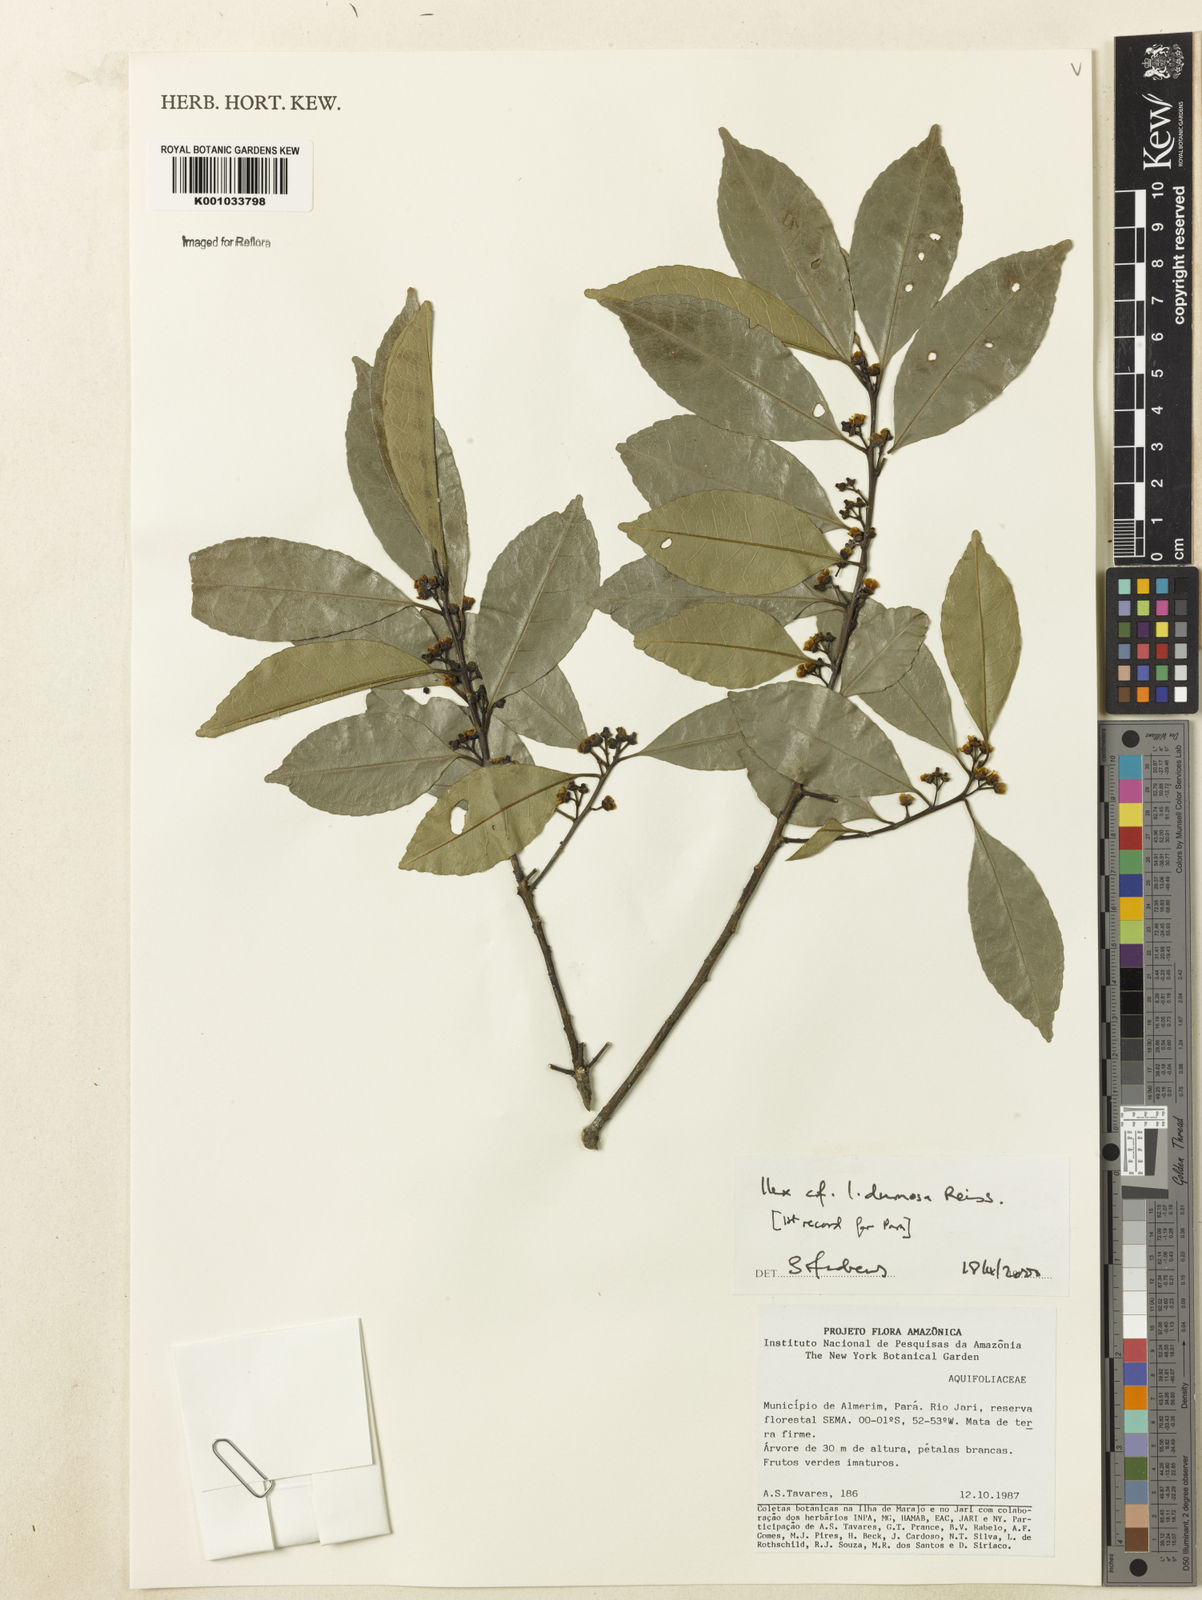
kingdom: Plantae
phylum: Tracheophyta
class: Magnoliopsida
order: Aquifoliales
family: Aquifoliaceae
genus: Ilex
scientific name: Ilex dumosa
